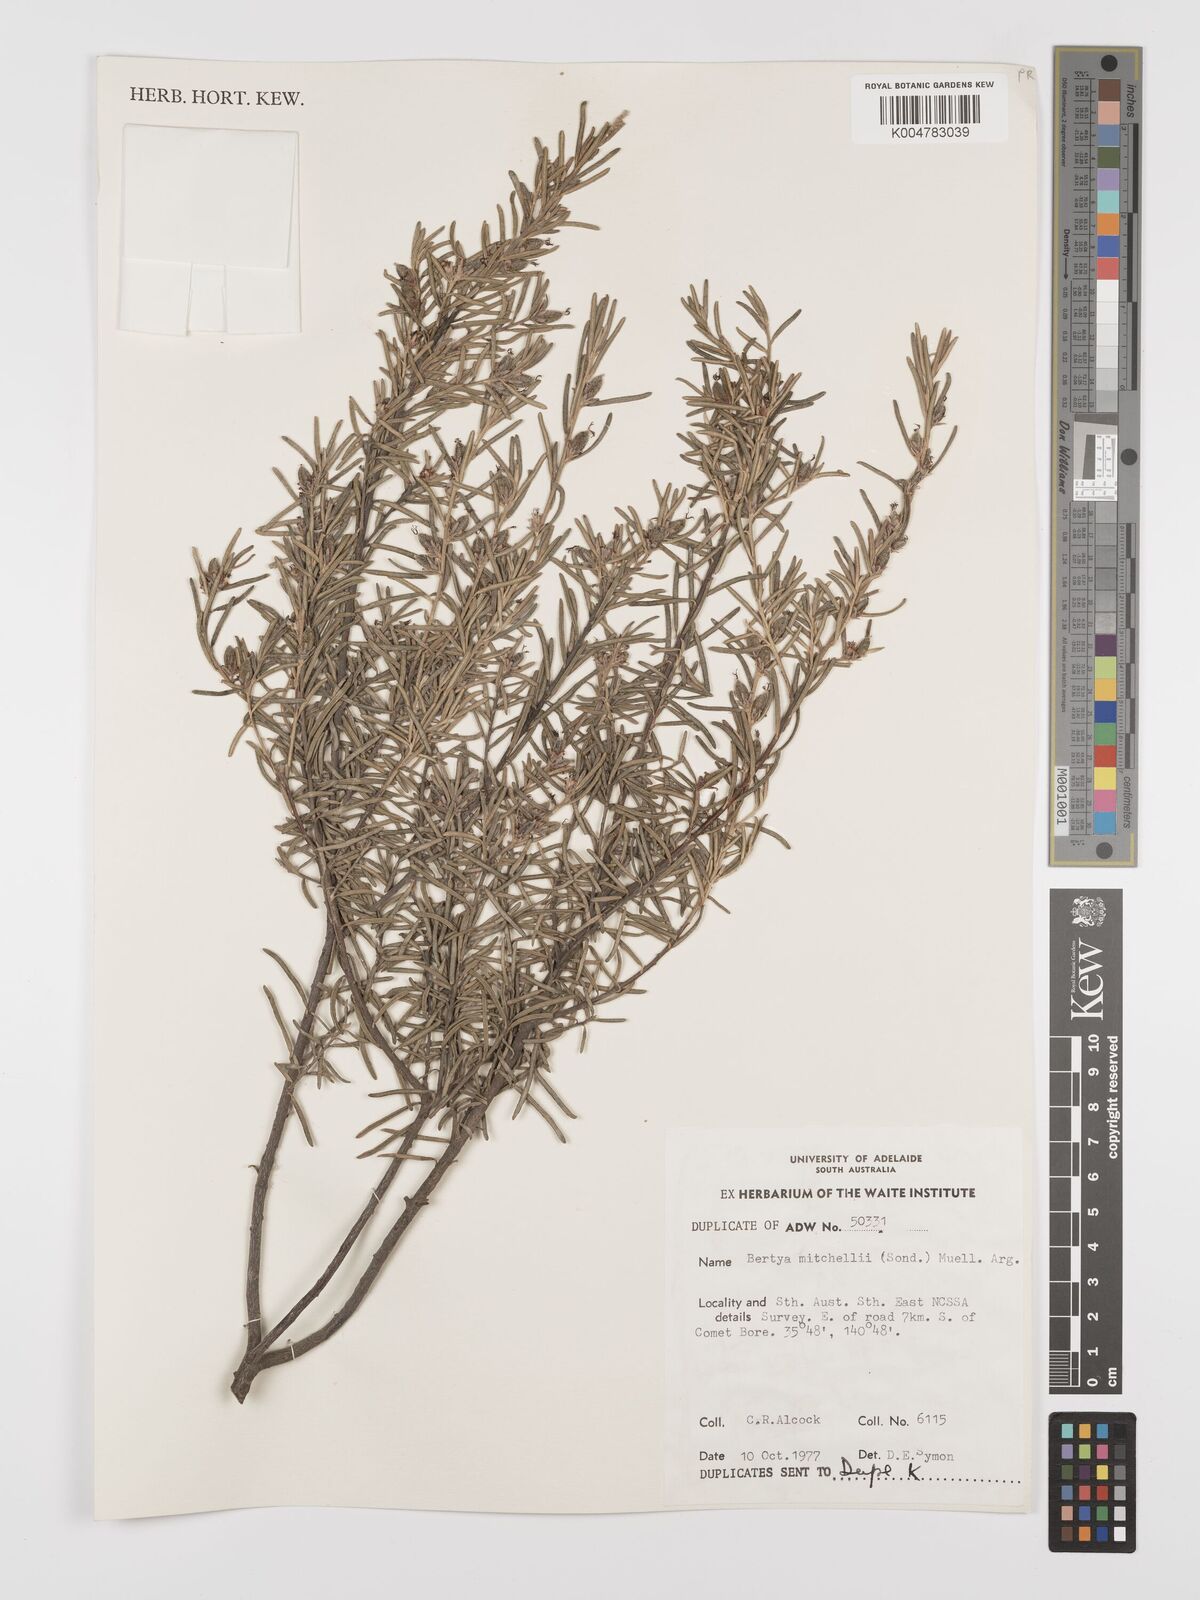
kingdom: Plantae
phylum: Tracheophyta
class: Magnoliopsida
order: Malpighiales
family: Euphorbiaceae
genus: Bertya
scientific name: Bertya oleifolia
